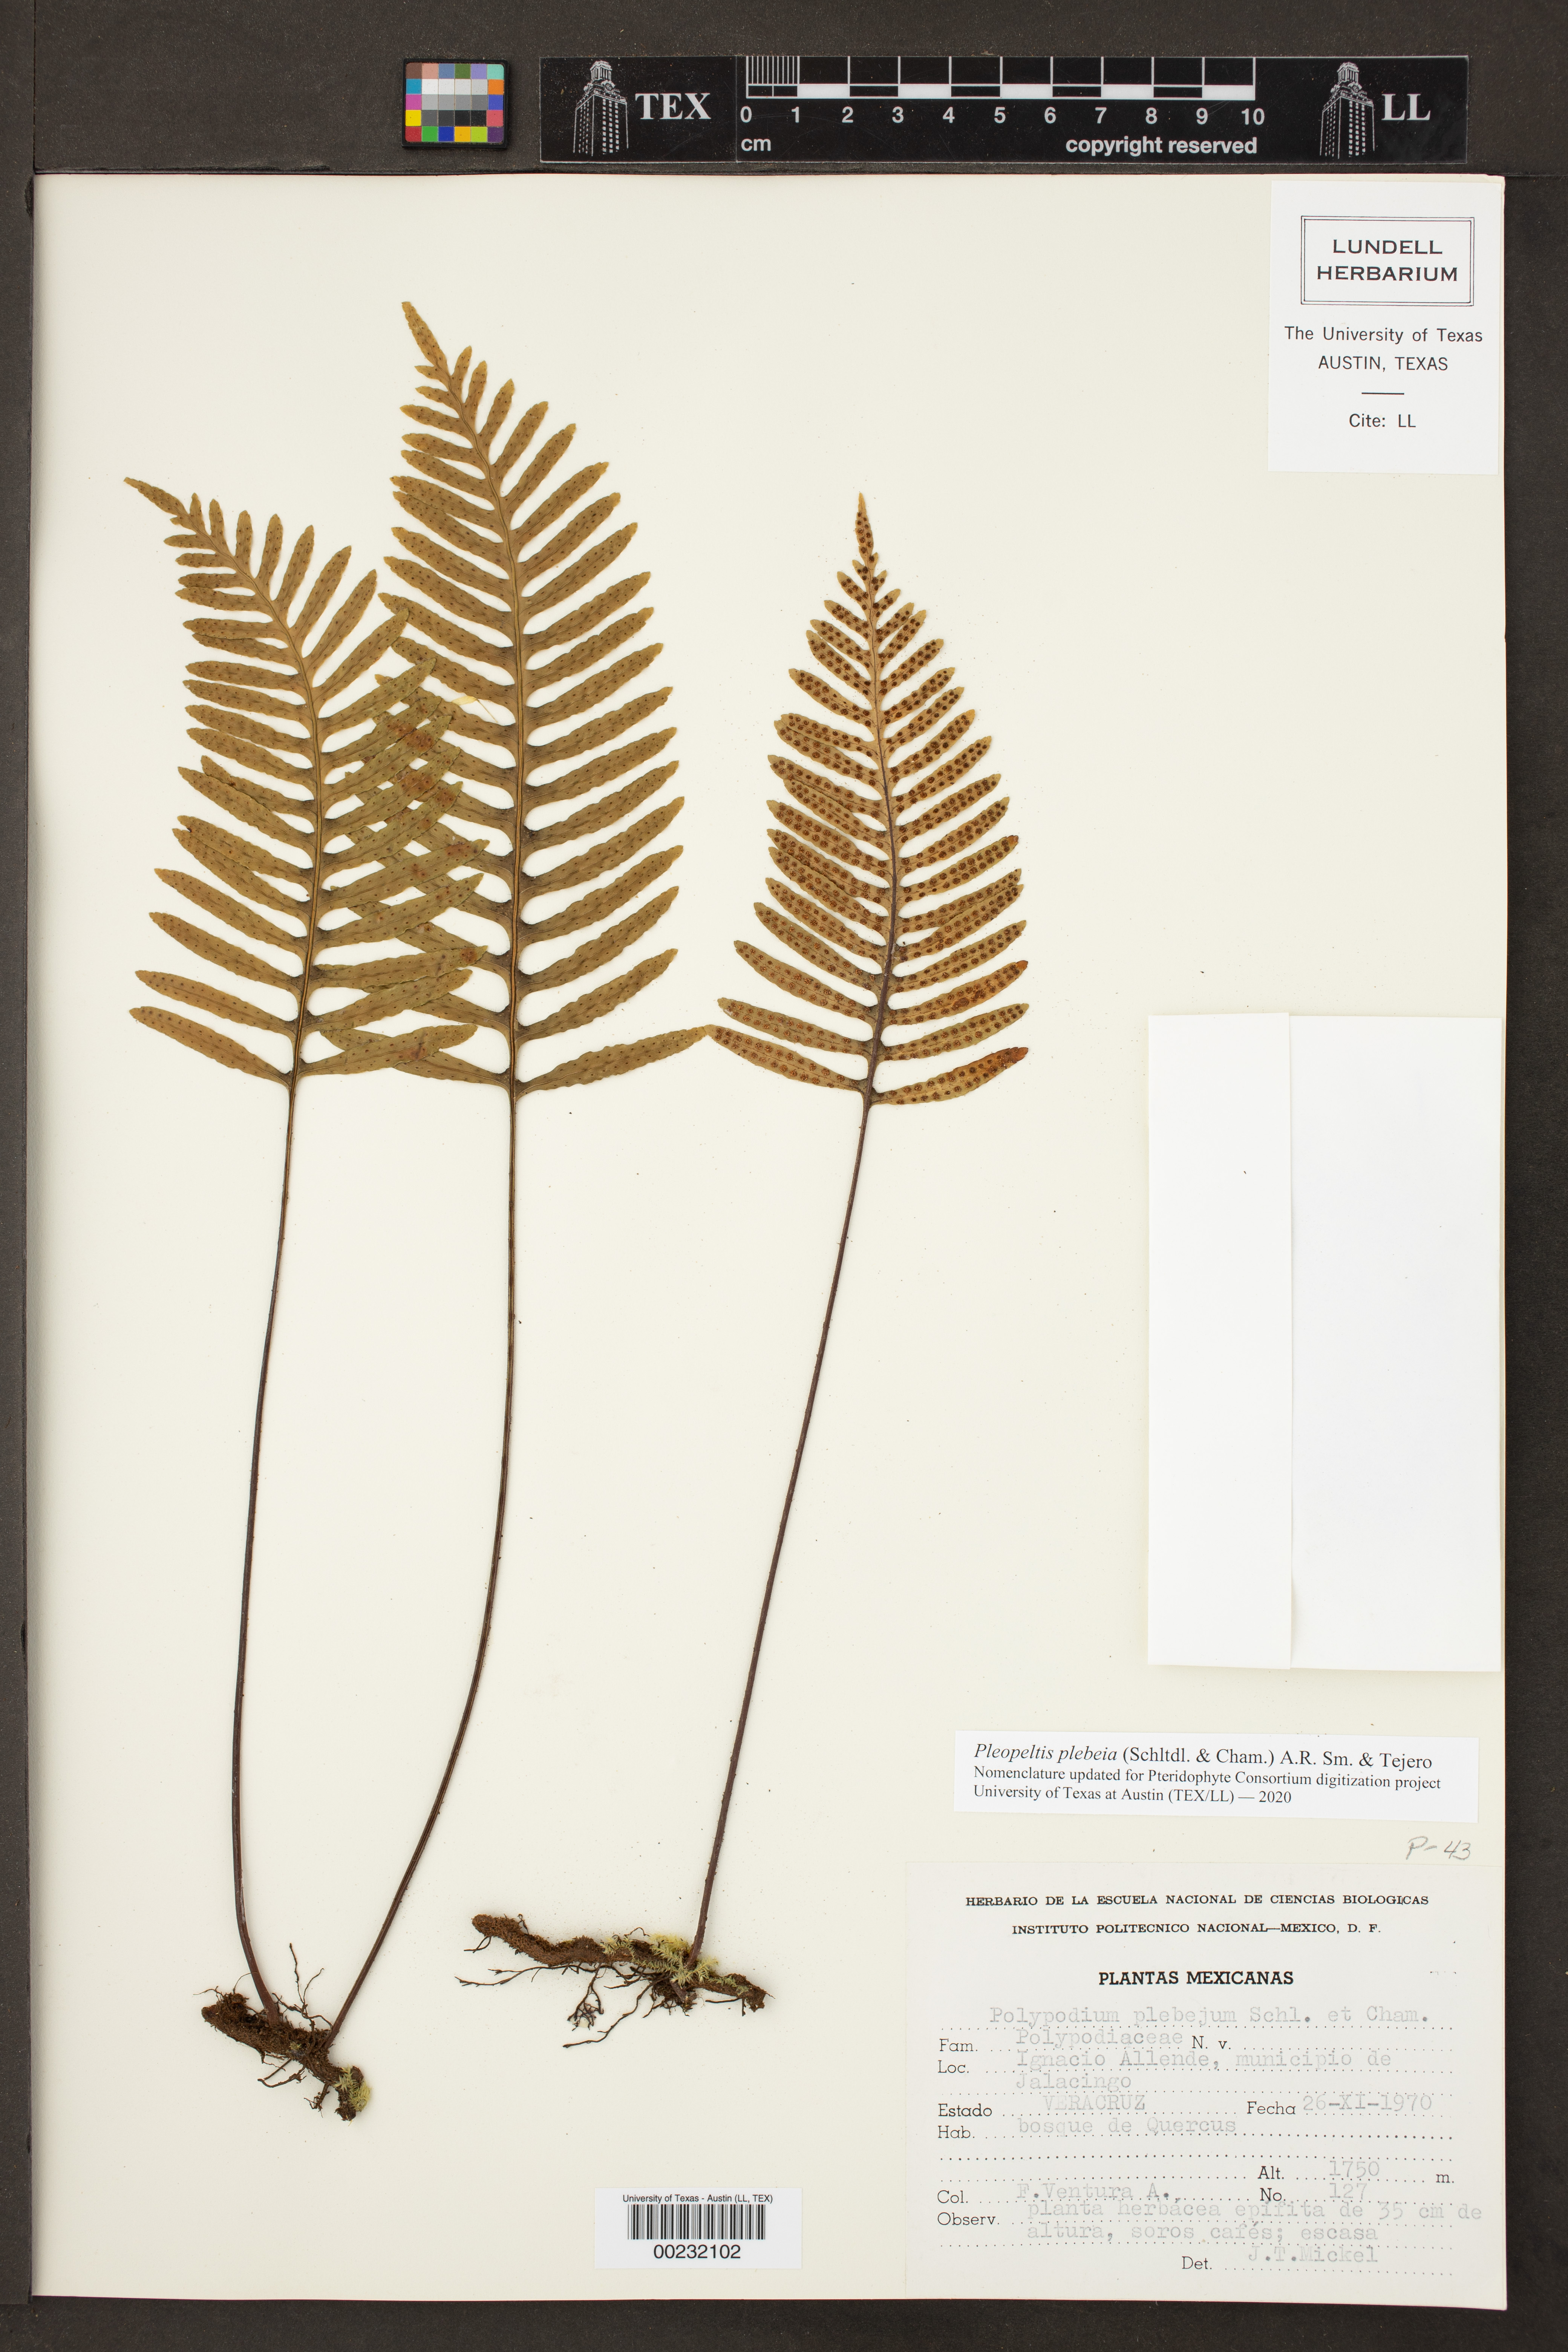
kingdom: Plantae
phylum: Tracheophyta
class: Polypodiopsida
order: Polypodiales
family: Polypodiaceae
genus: Pleopeltis
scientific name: Pleopeltis plebeia
